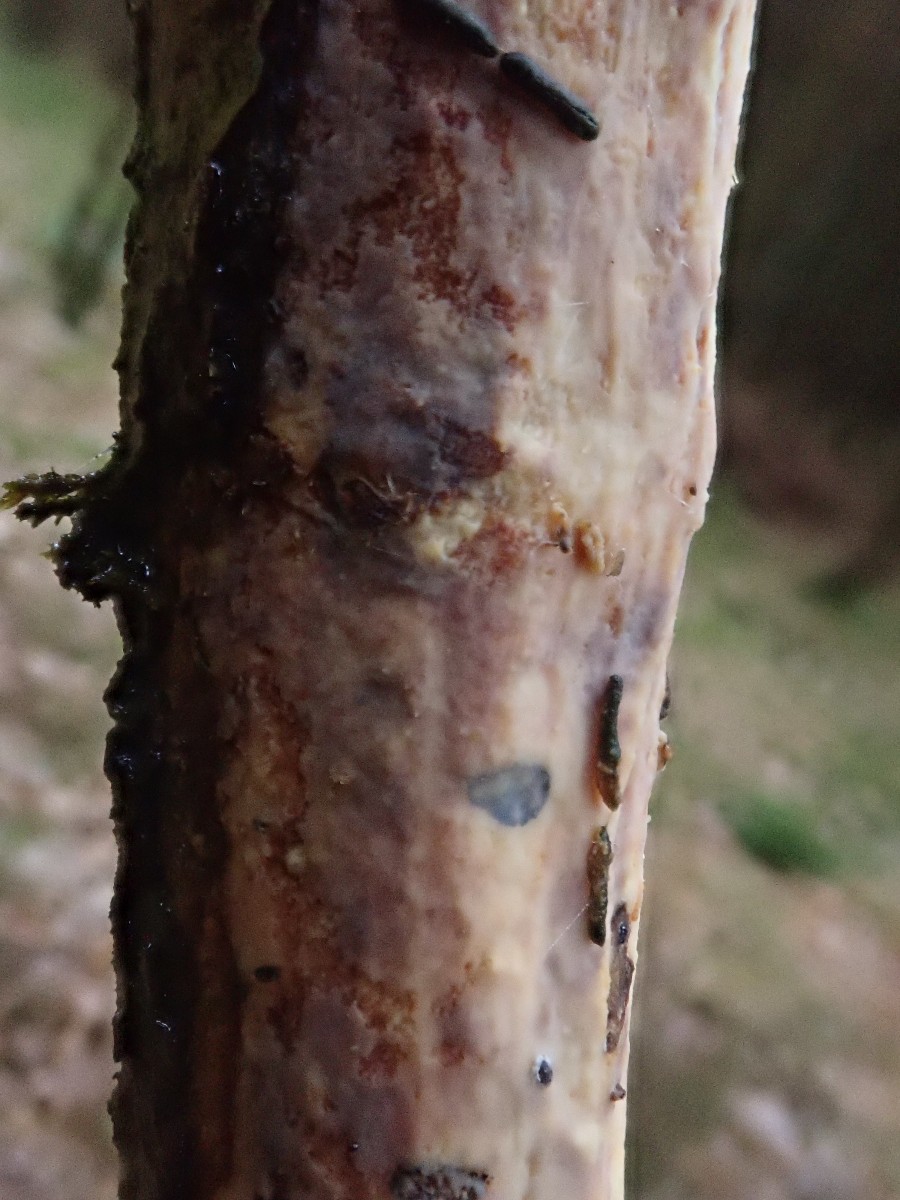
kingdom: Fungi
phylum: Basidiomycota
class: Agaricomycetes
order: Corticiales
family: Vuilleminiaceae
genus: Vuilleminia
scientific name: Vuilleminia comedens
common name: almindelig barksprænger
